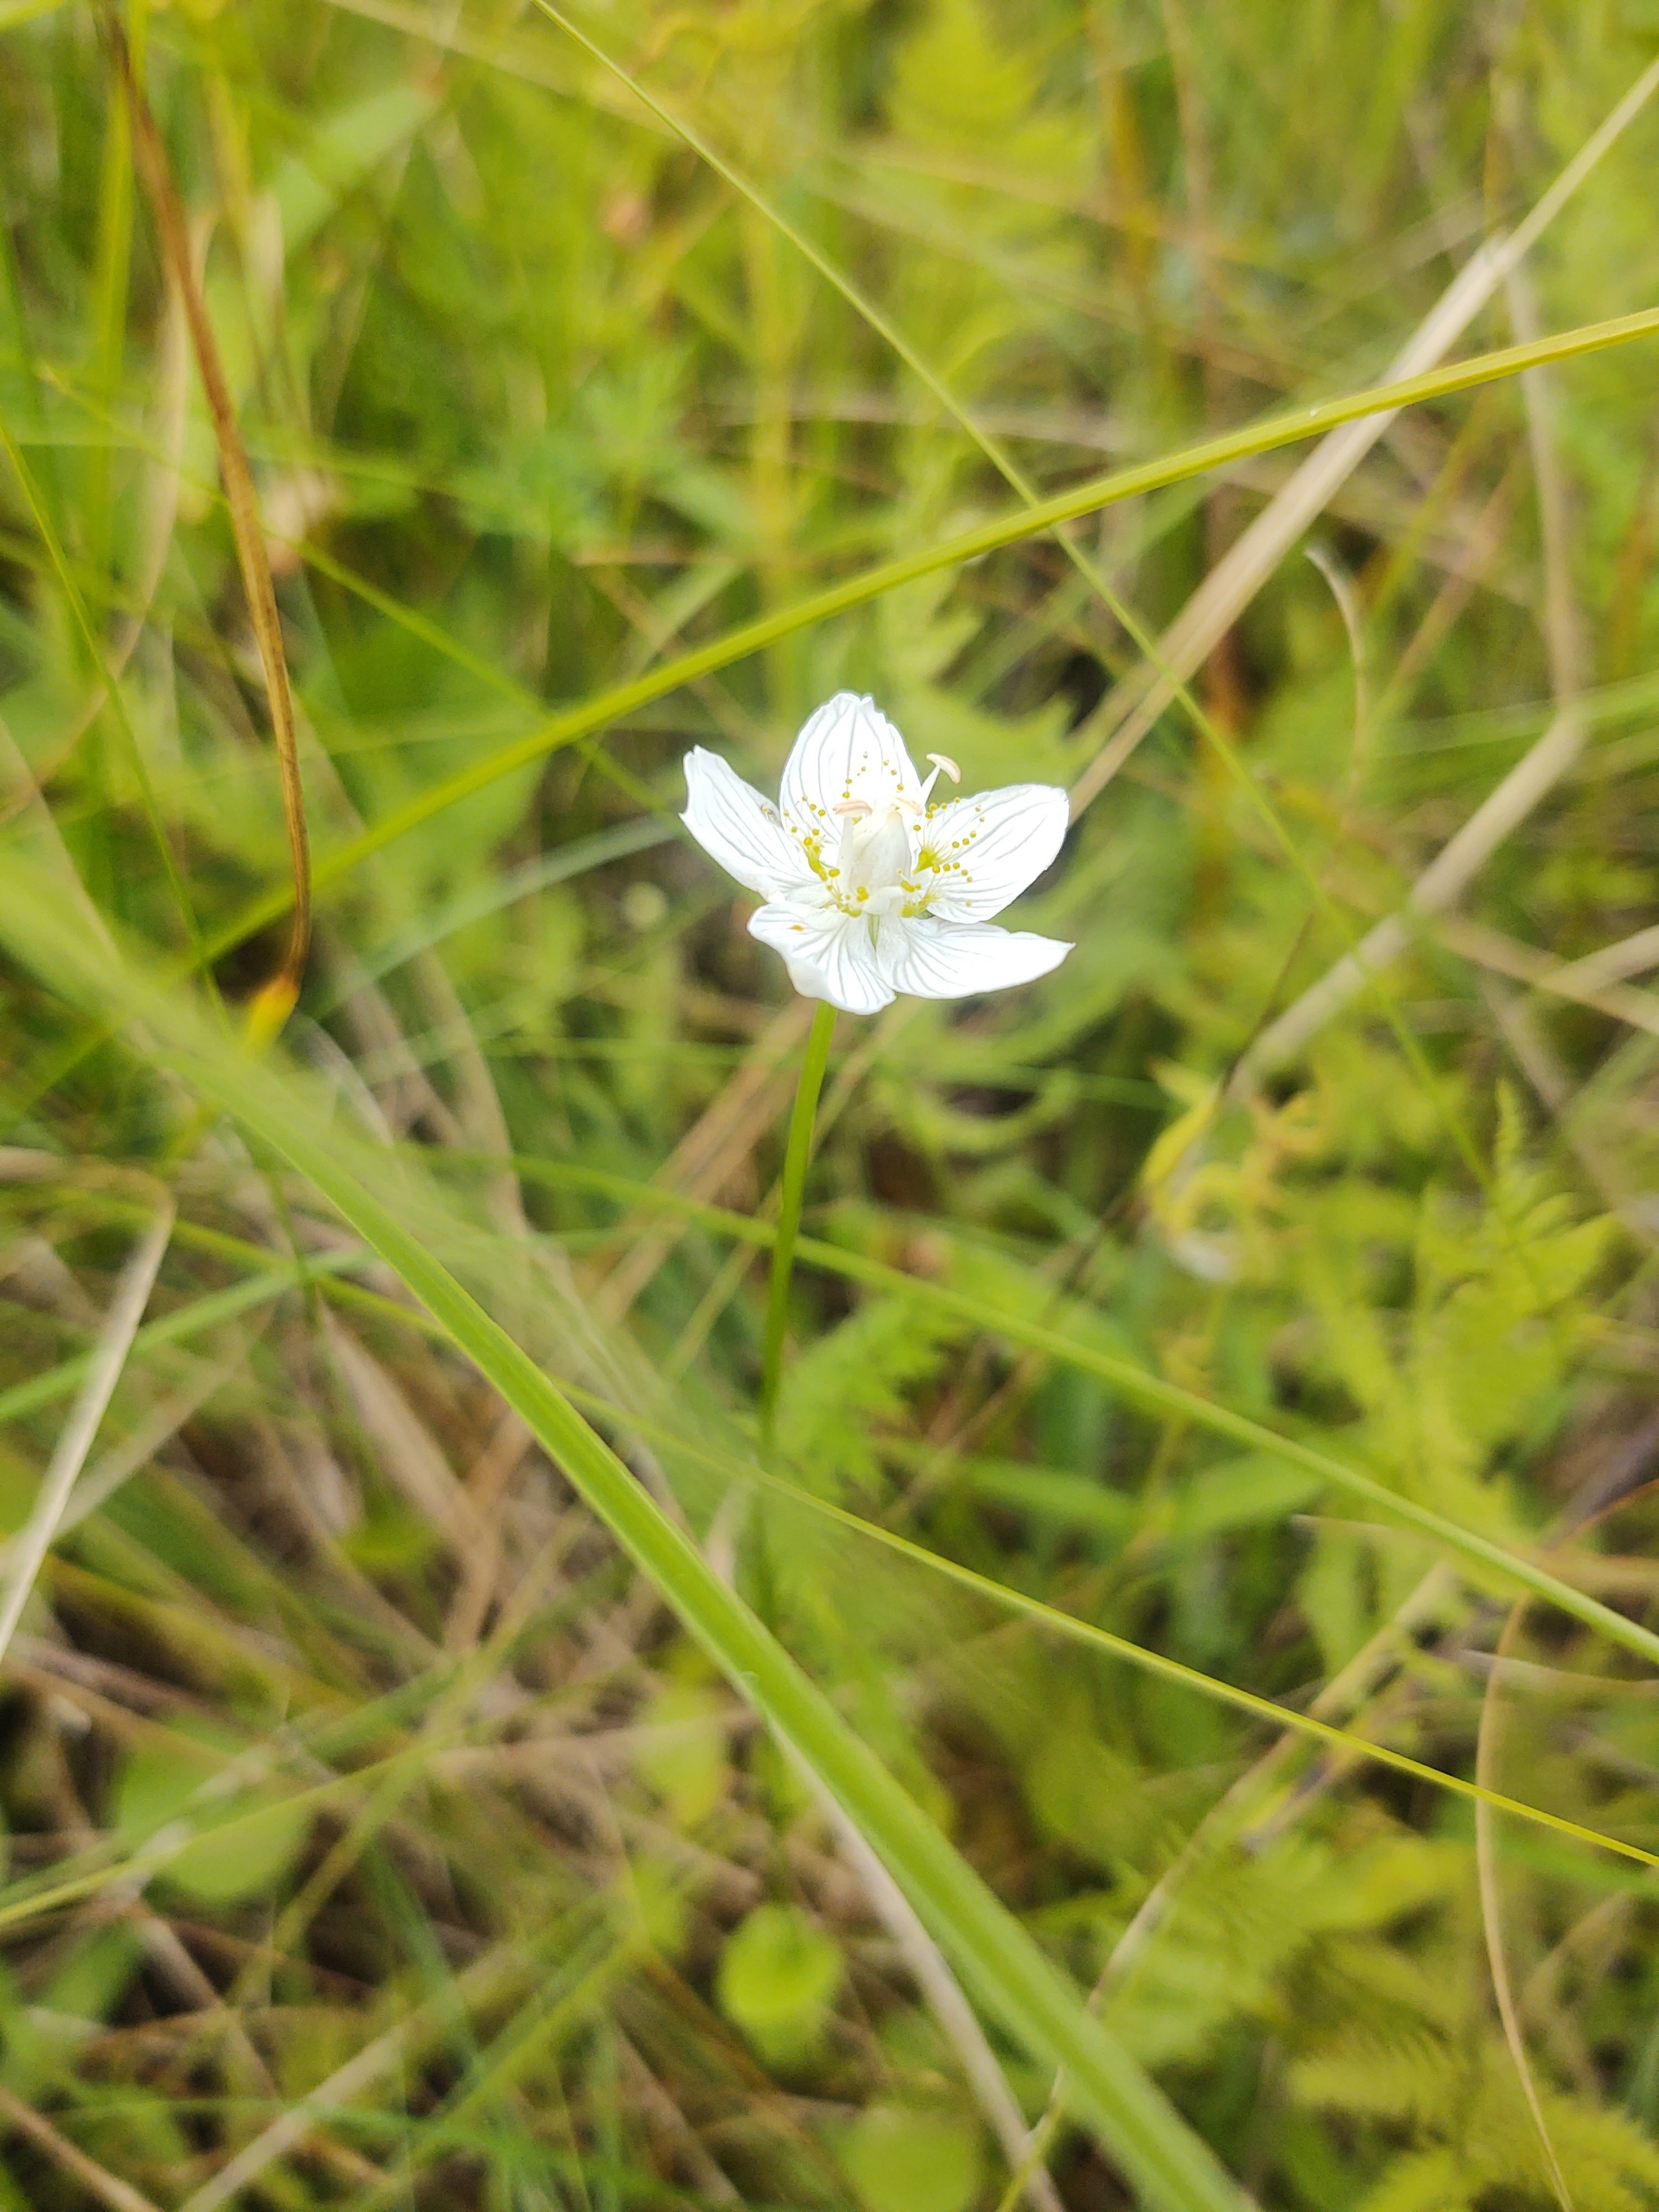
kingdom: Plantae
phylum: Tracheophyta
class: Magnoliopsida
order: Celastrales
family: Parnassiaceae
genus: Parnassia
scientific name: Parnassia palustris
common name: Leverurt
